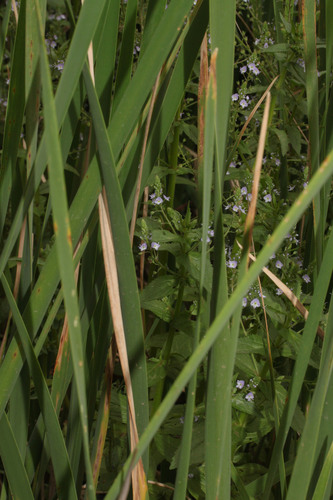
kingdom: Plantae
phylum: Tracheophyta
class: Magnoliopsida
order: Lamiales
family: Plantaginaceae
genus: Veronica
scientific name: Veronica anagallis-aquatica
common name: Water speedwell
